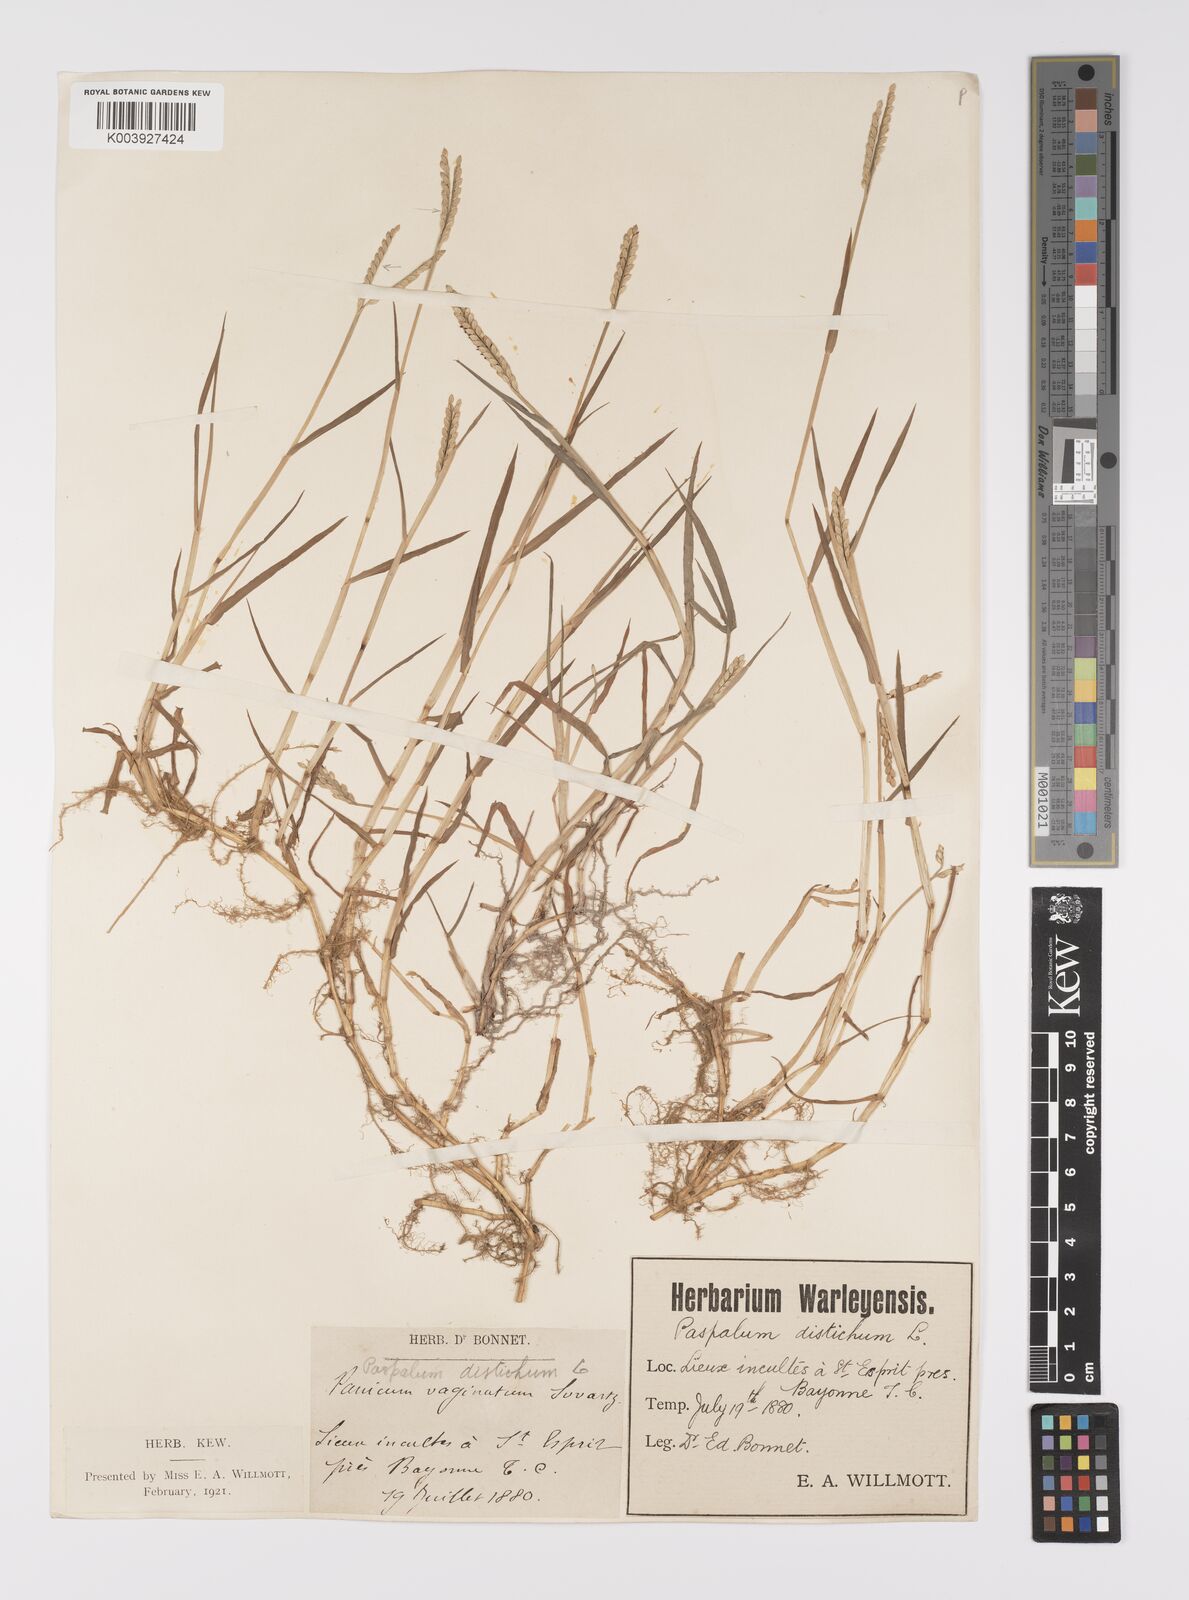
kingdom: Plantae
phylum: Tracheophyta
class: Liliopsida
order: Poales
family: Poaceae
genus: Paspalum
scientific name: Paspalum distichum
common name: Knotgrass
